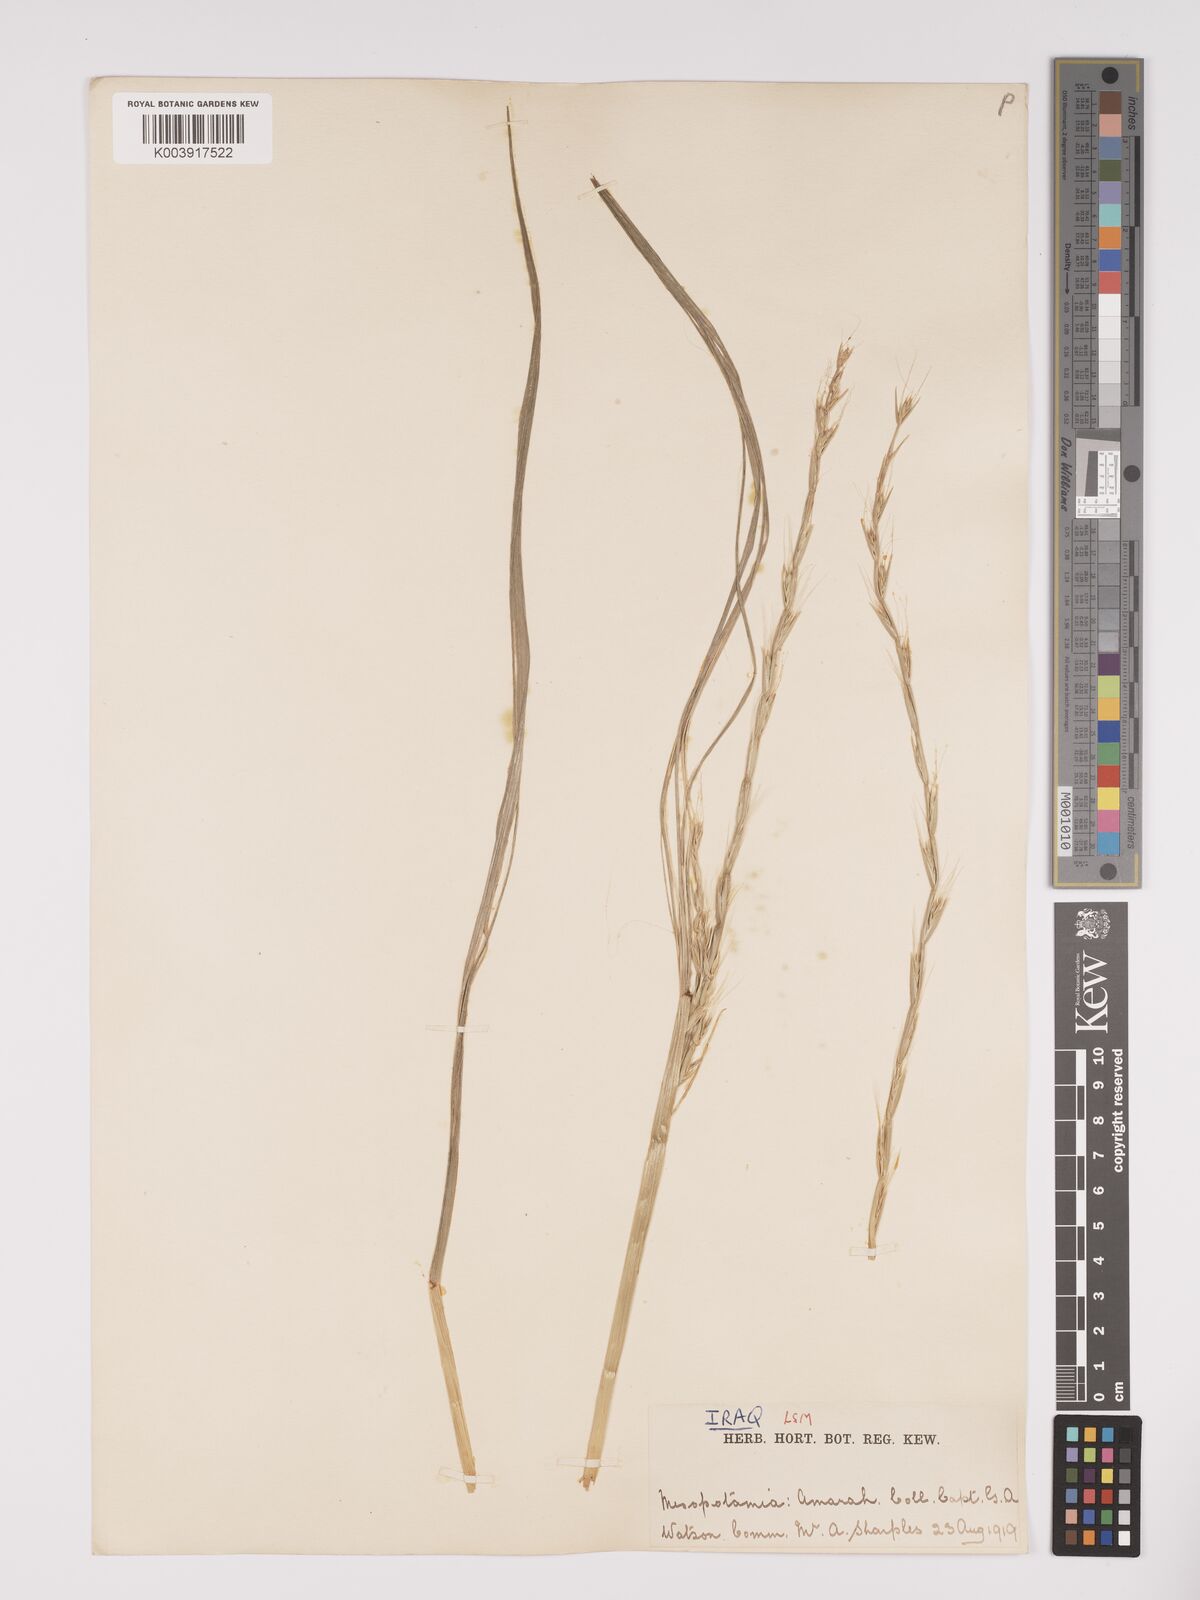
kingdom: Plantae
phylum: Tracheophyta
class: Liliopsida
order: Poales
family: Poaceae
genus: Lolium
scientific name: Lolium temulentum
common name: Darnel
